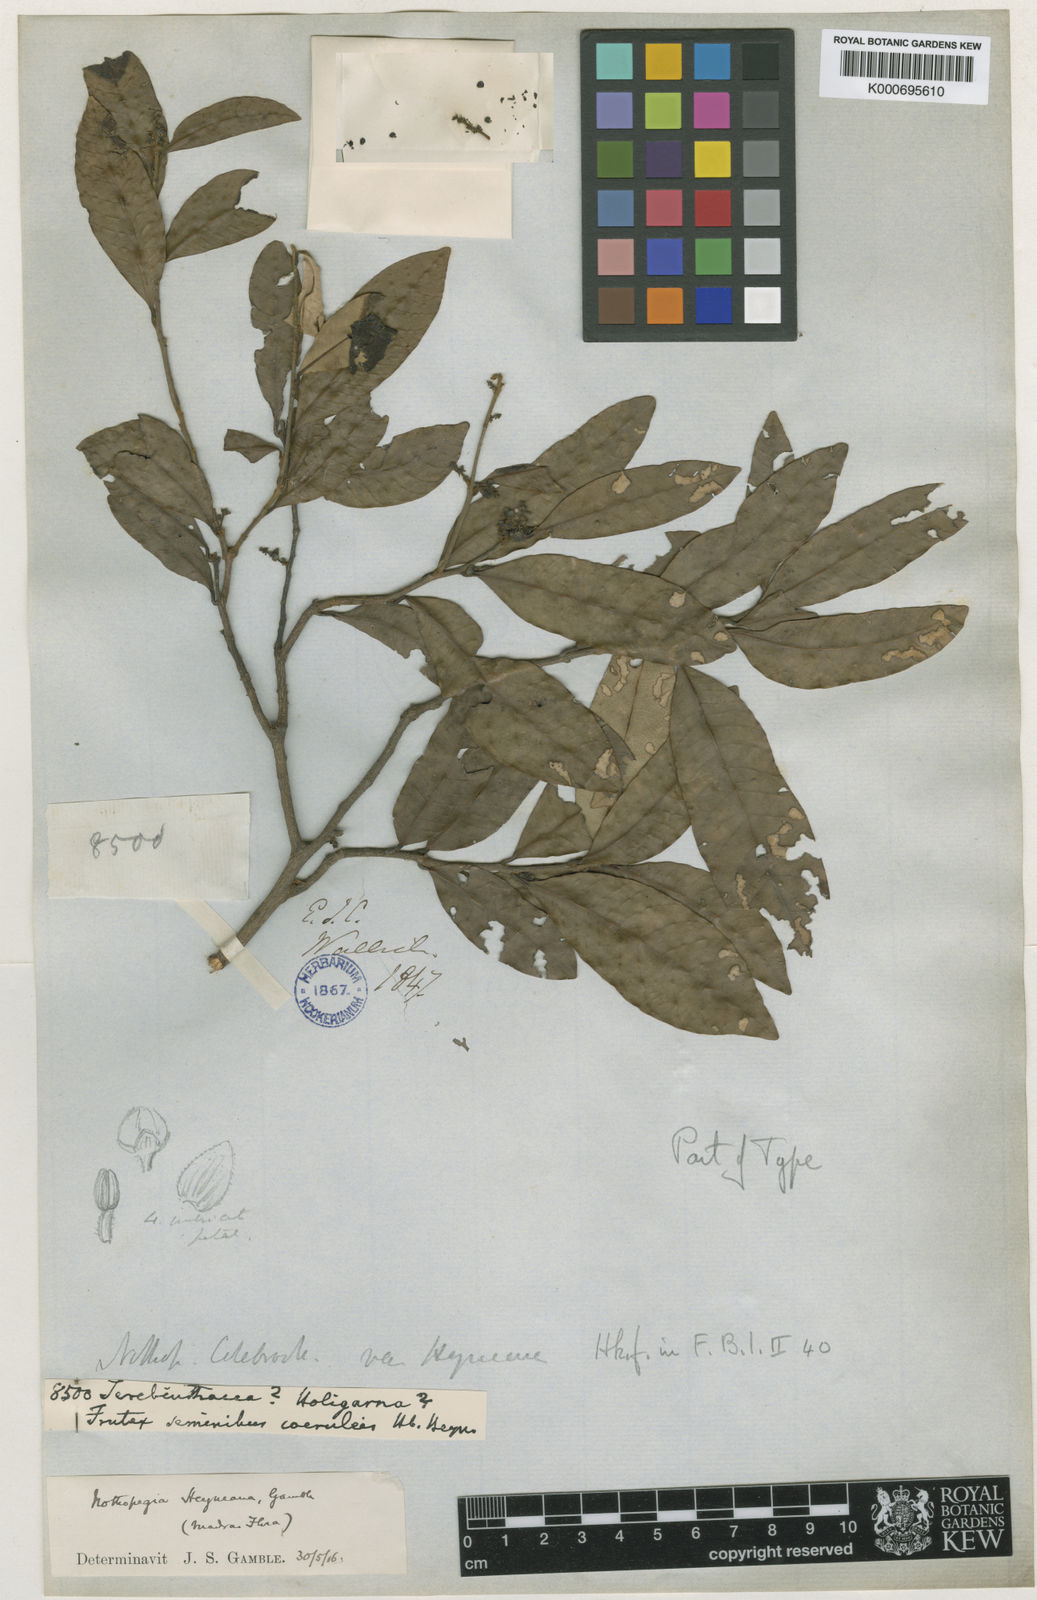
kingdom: Plantae
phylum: Tracheophyta
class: Magnoliopsida
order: Sapindales
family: Anacardiaceae
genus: Nothopegia
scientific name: Nothopegia heyneana
